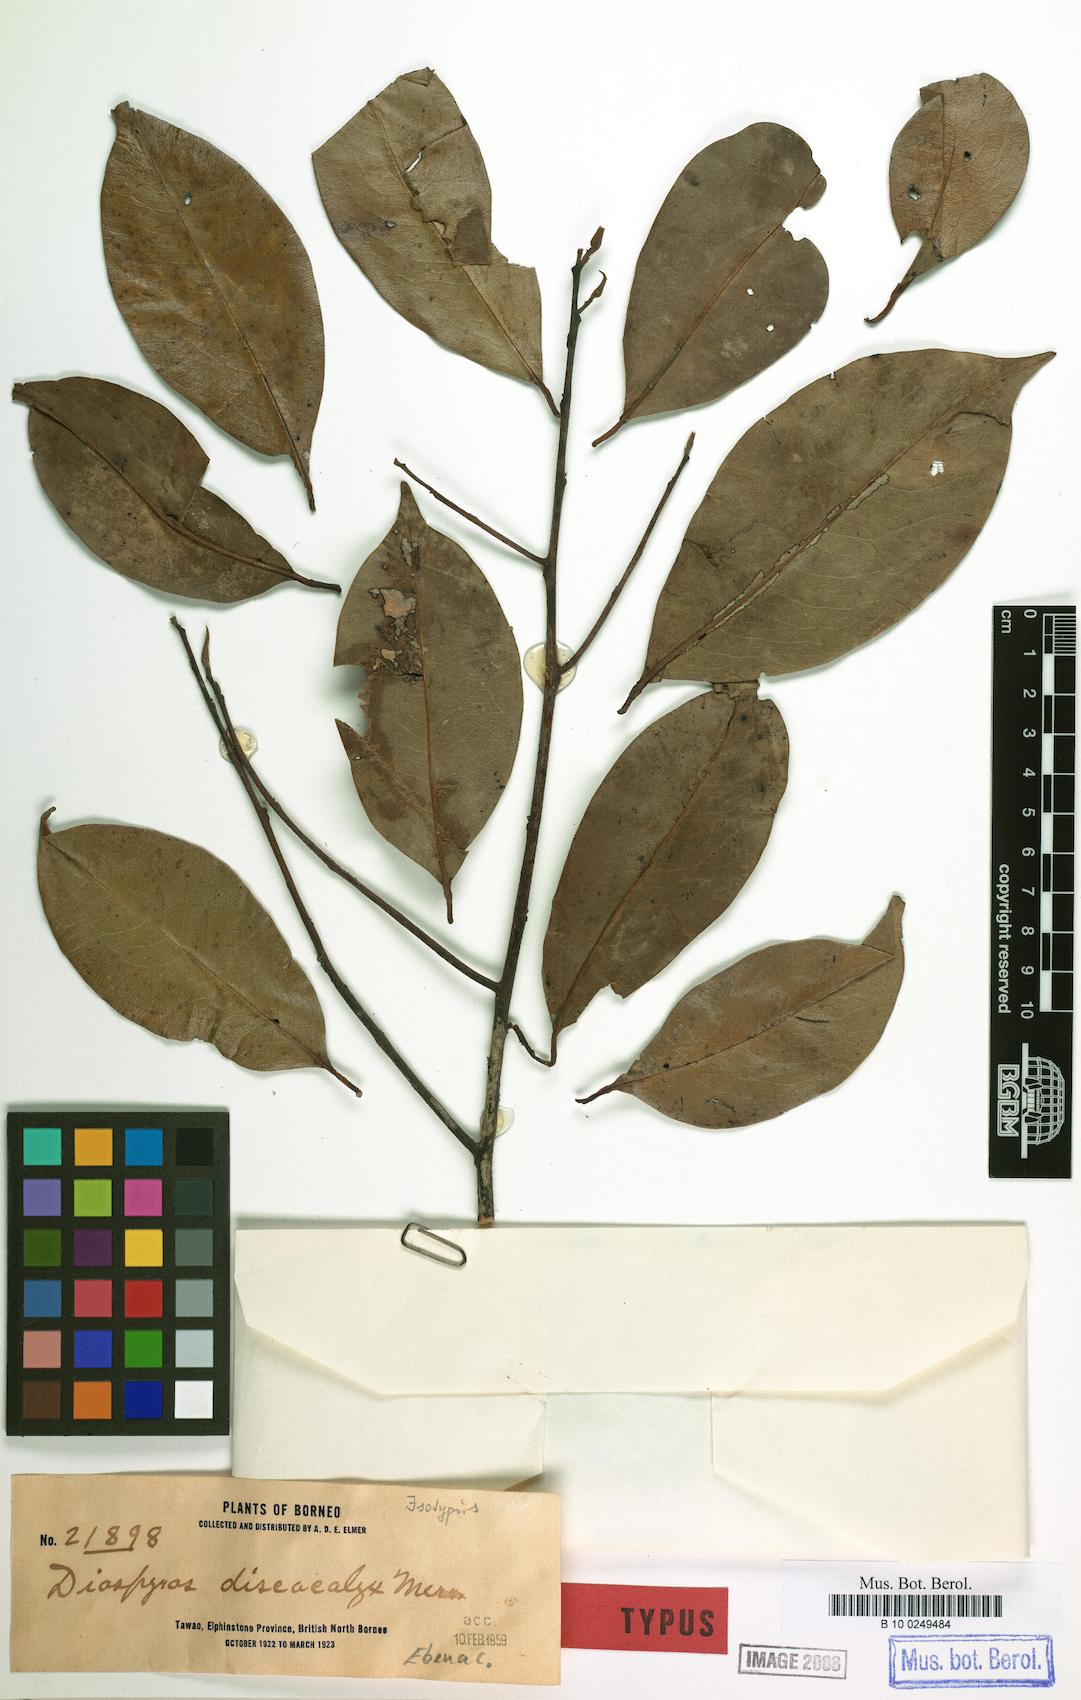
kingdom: Plantae
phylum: Tracheophyta
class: Magnoliopsida
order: Ericales
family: Ebenaceae
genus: Diospyros
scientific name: Diospyros discocalyx
